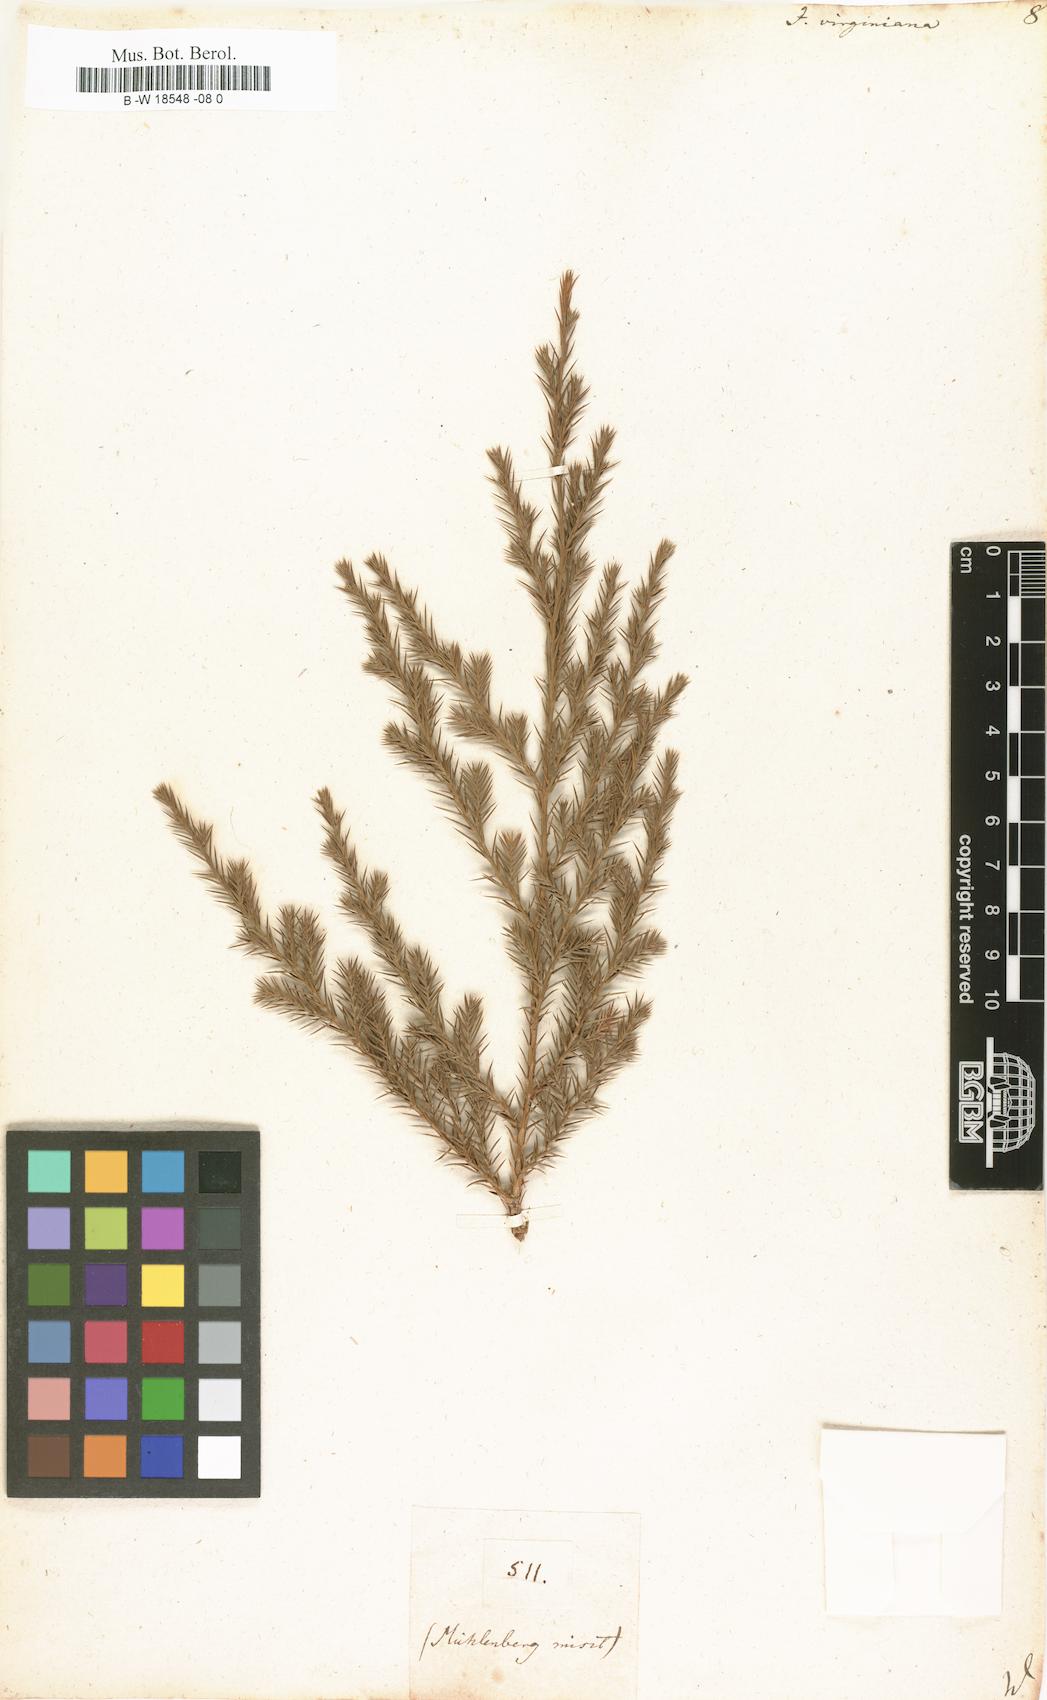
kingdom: Plantae
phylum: Tracheophyta
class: Pinopsida
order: Pinales
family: Cupressaceae
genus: Juniperus
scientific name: Juniperus virginiana
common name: Red juniper
